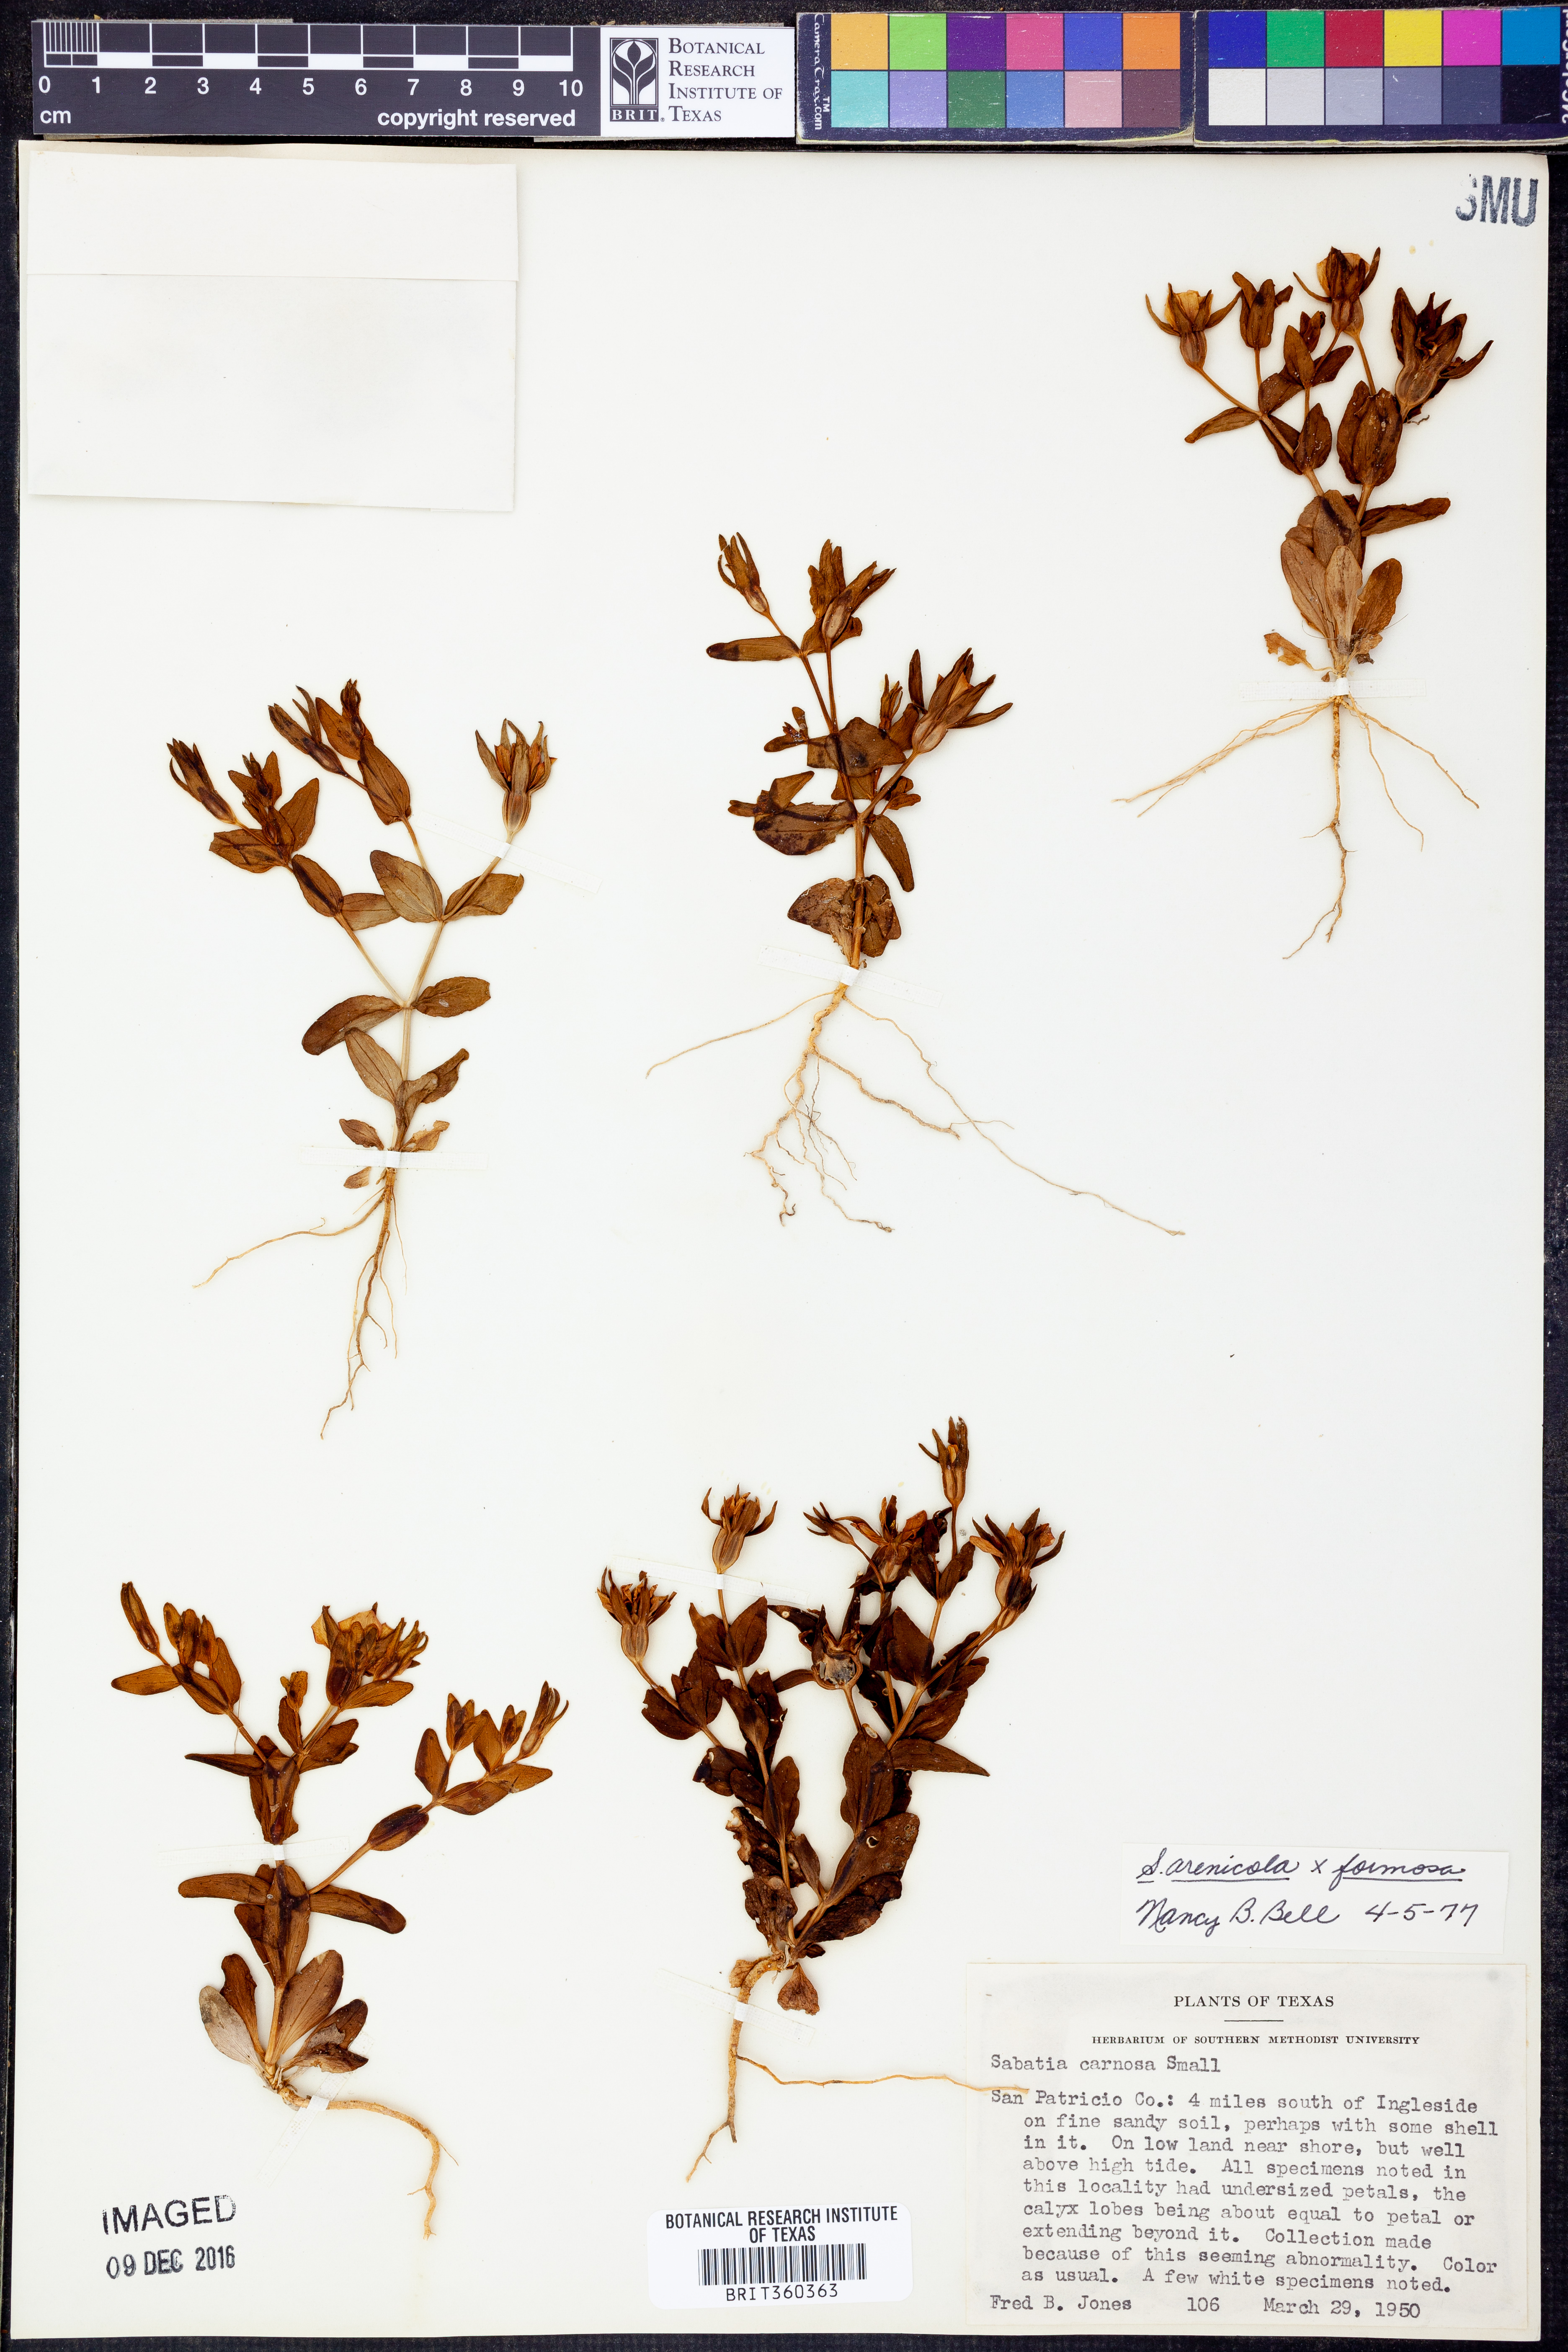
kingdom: Plantae
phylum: Tracheophyta
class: Magnoliopsida
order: Gentianales
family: Gentianaceae
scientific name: Gentianaceae
